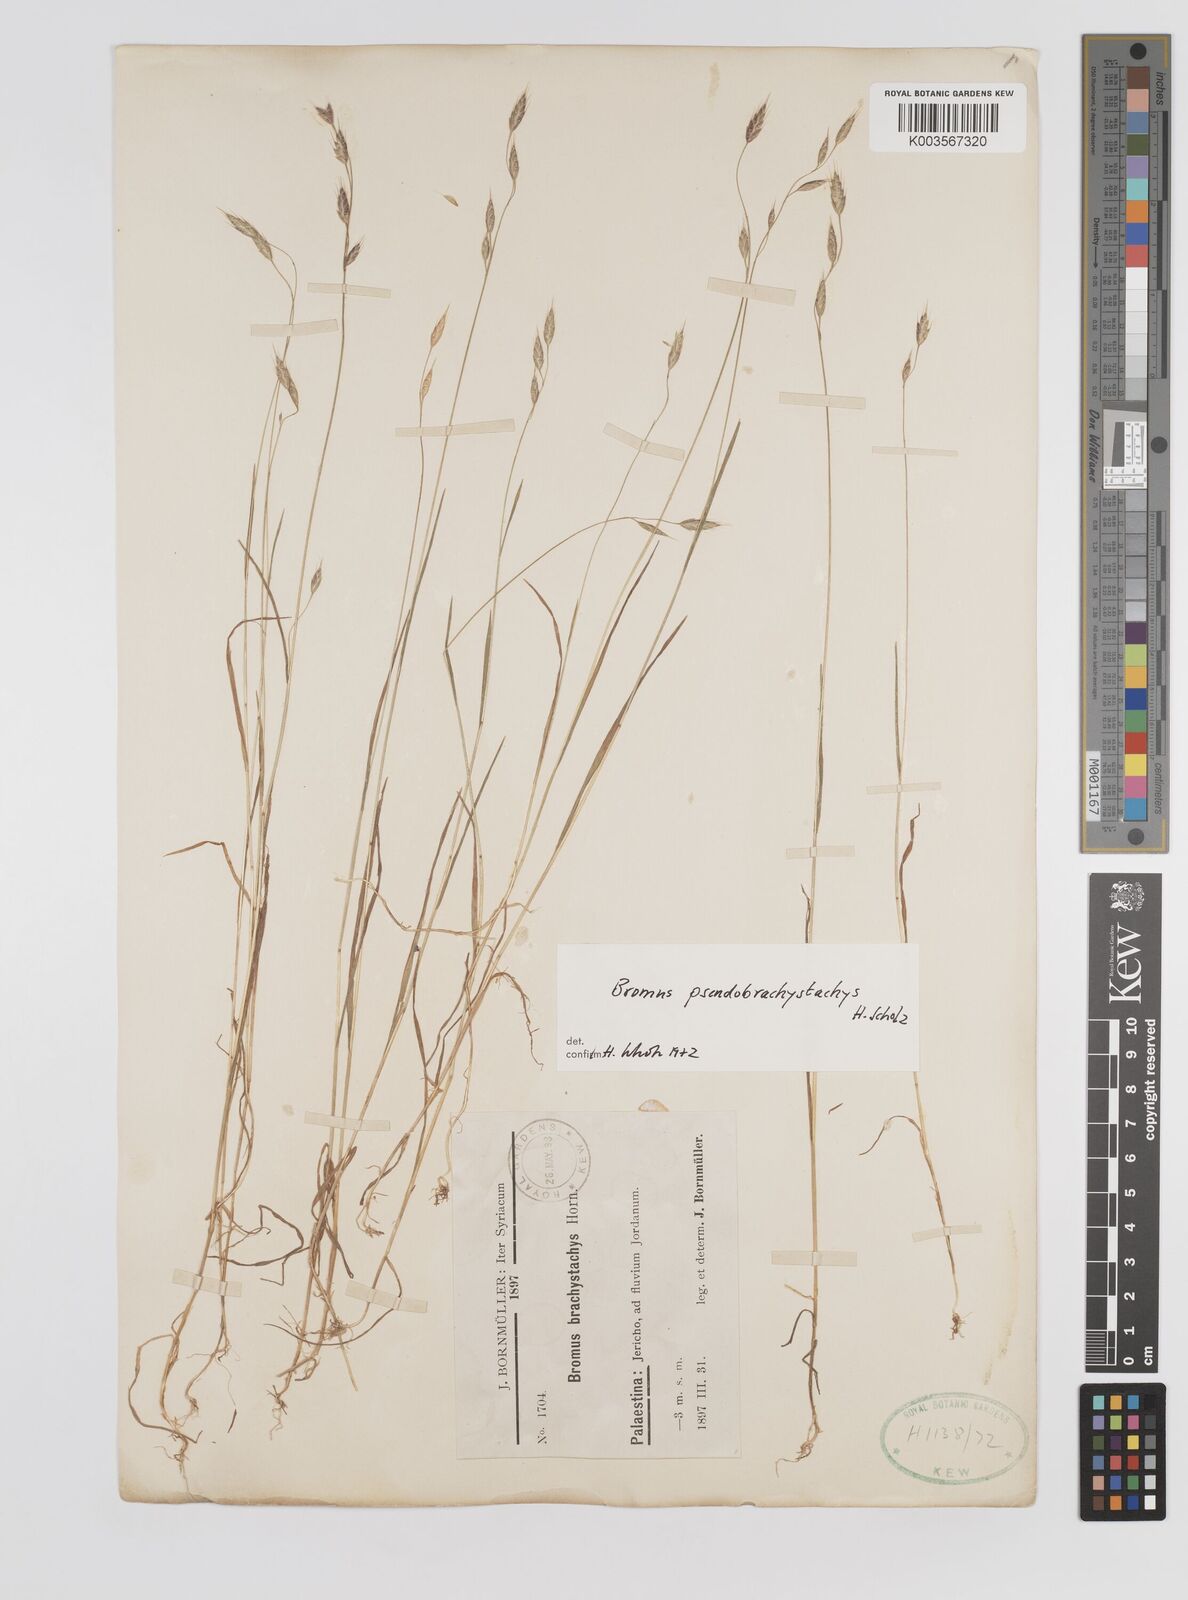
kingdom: Plantae
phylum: Tracheophyta
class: Liliopsida
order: Poales
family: Poaceae
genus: Bromus
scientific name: Bromus pseudobrachystachys
